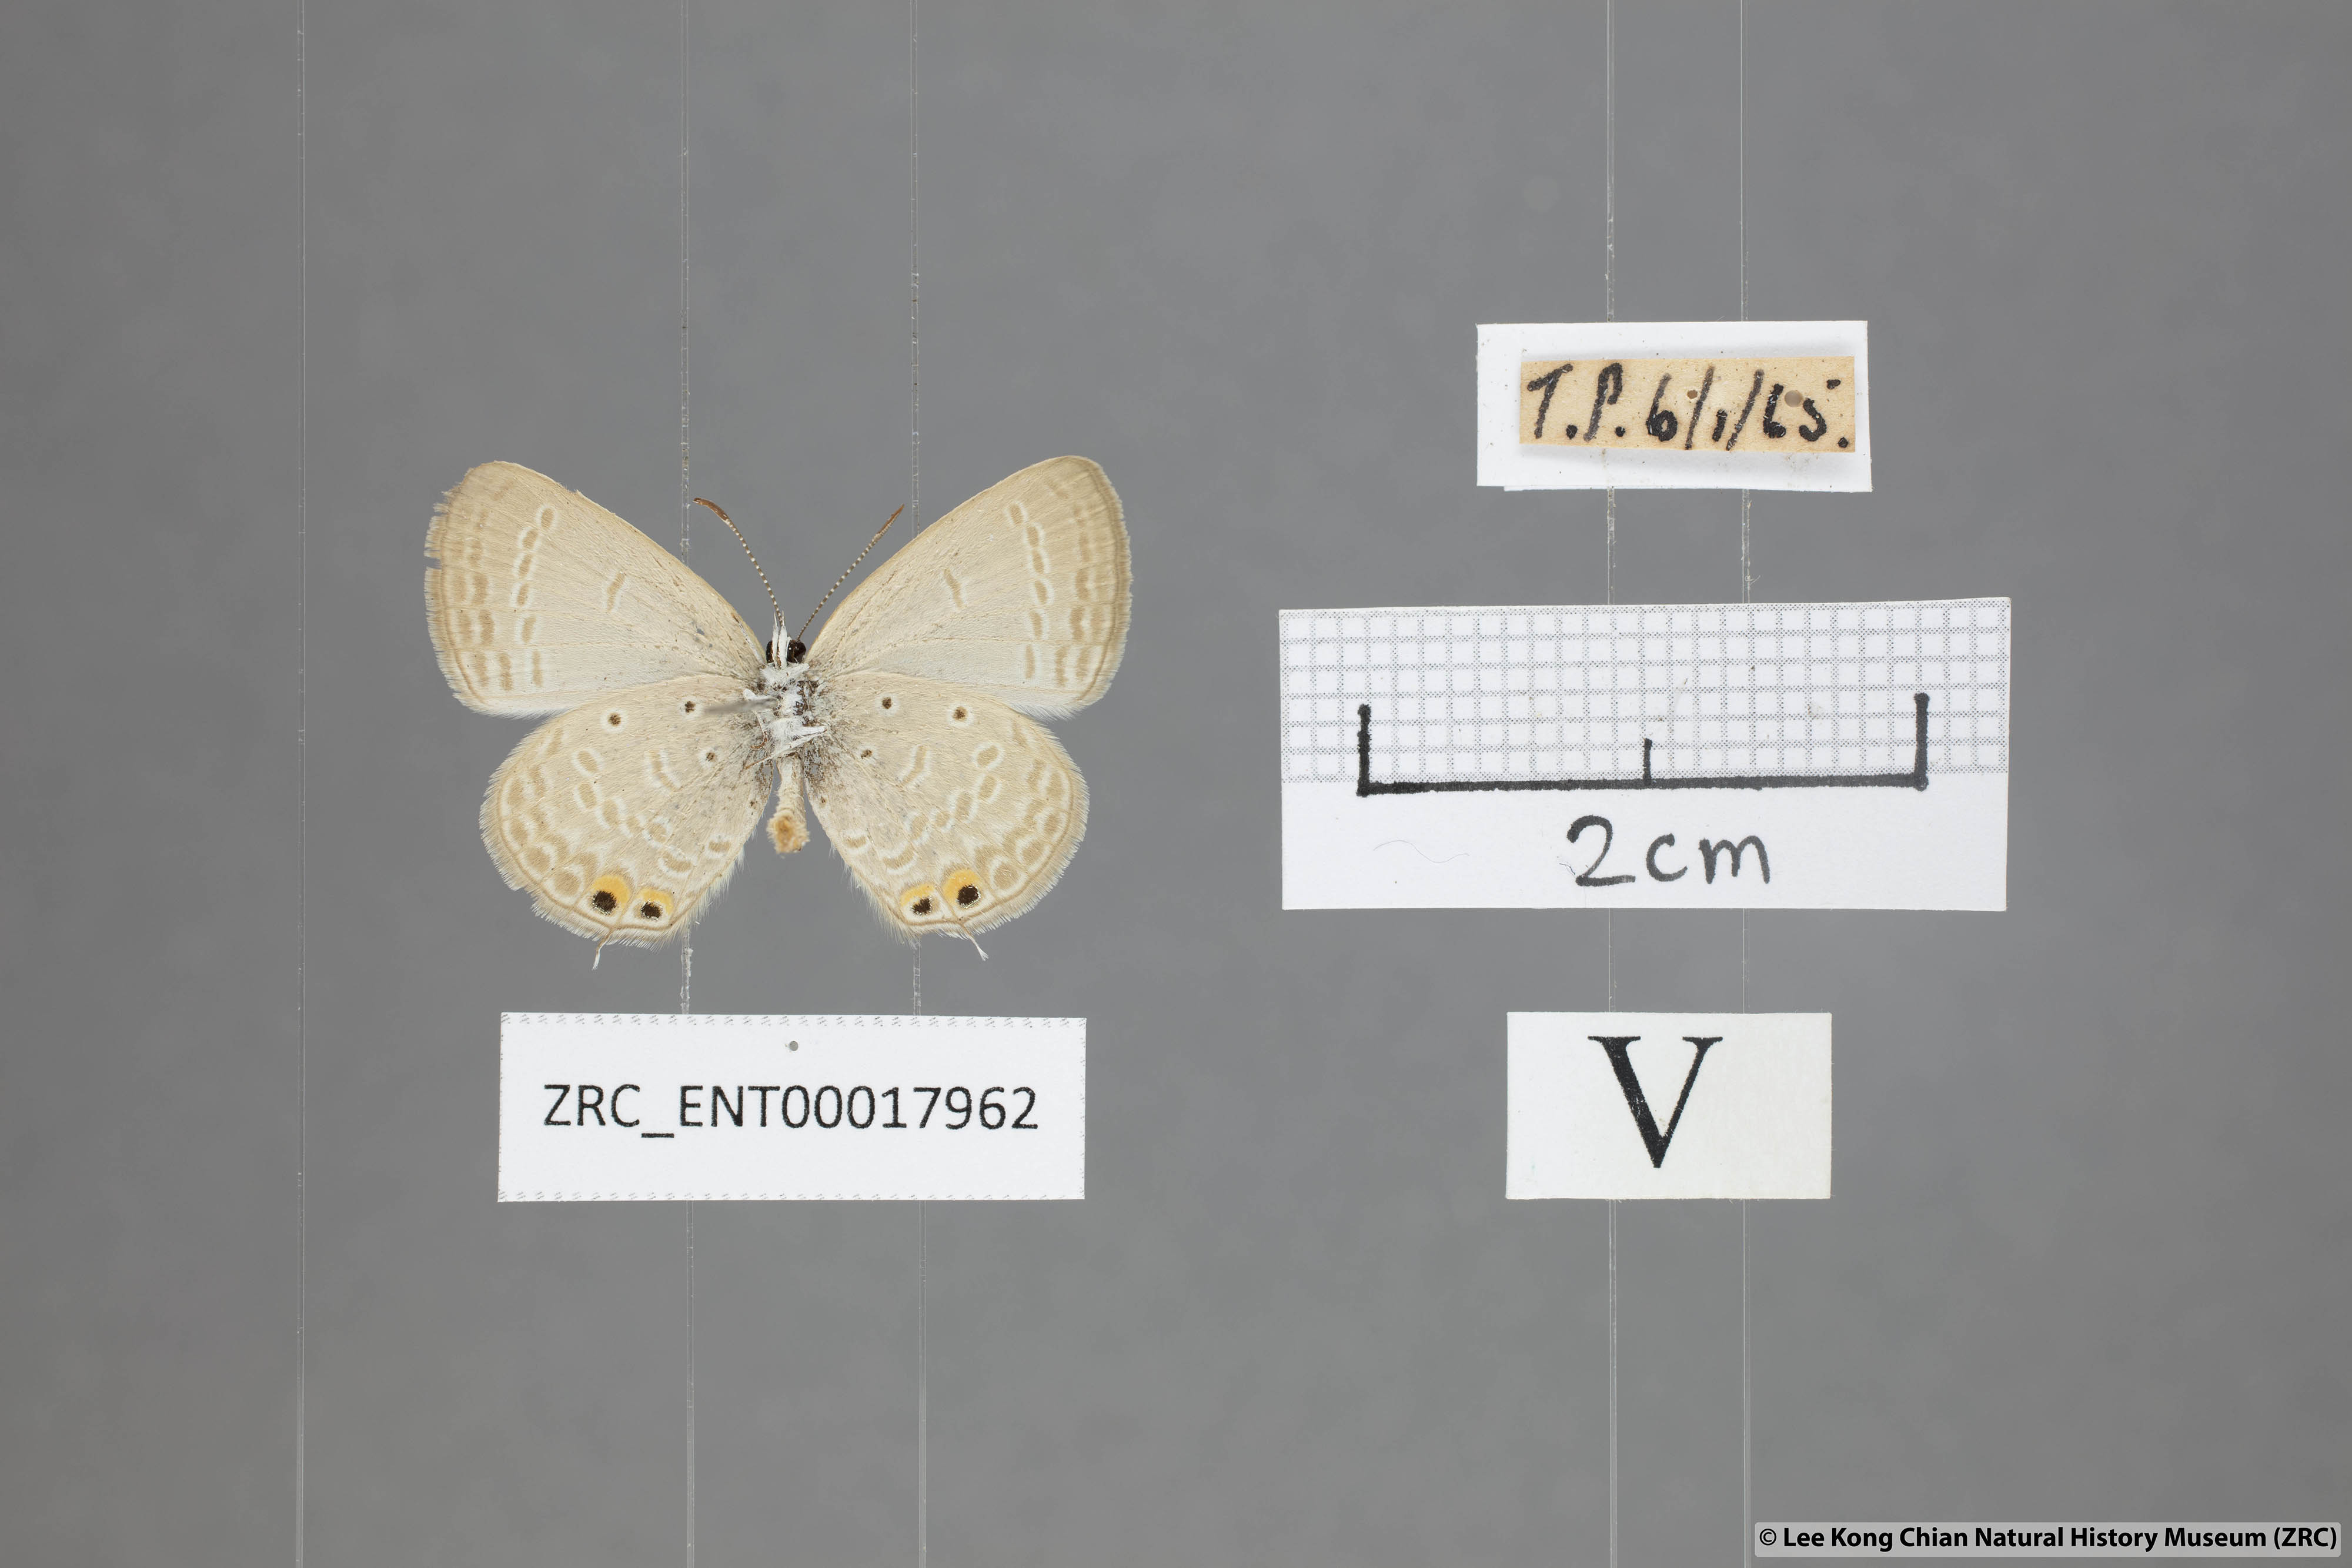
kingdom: Animalia
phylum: Arthropoda
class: Insecta
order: Lepidoptera
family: Lycaenidae
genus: Euchrysops
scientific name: Euchrysops cnejus
